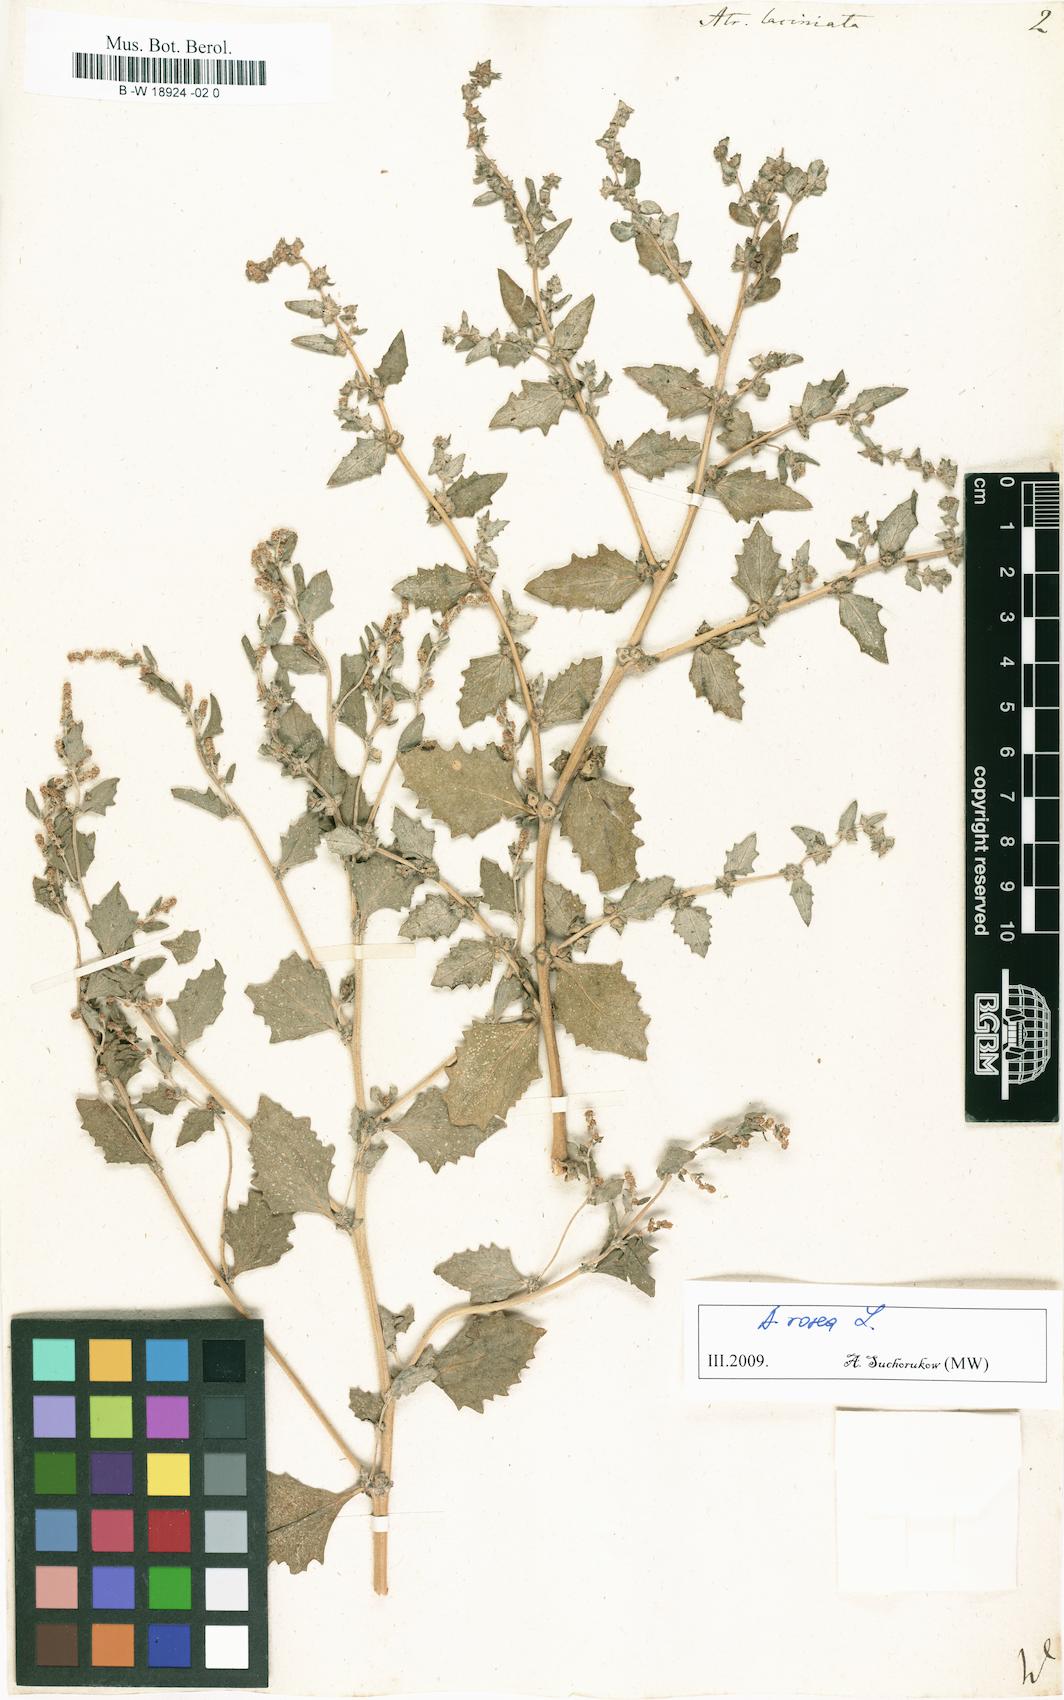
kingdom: Plantae
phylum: Tracheophyta
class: Magnoliopsida
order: Caryophyllales
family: Amaranthaceae
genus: Atriplex
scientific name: Atriplex laciniata
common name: Frosted orache
